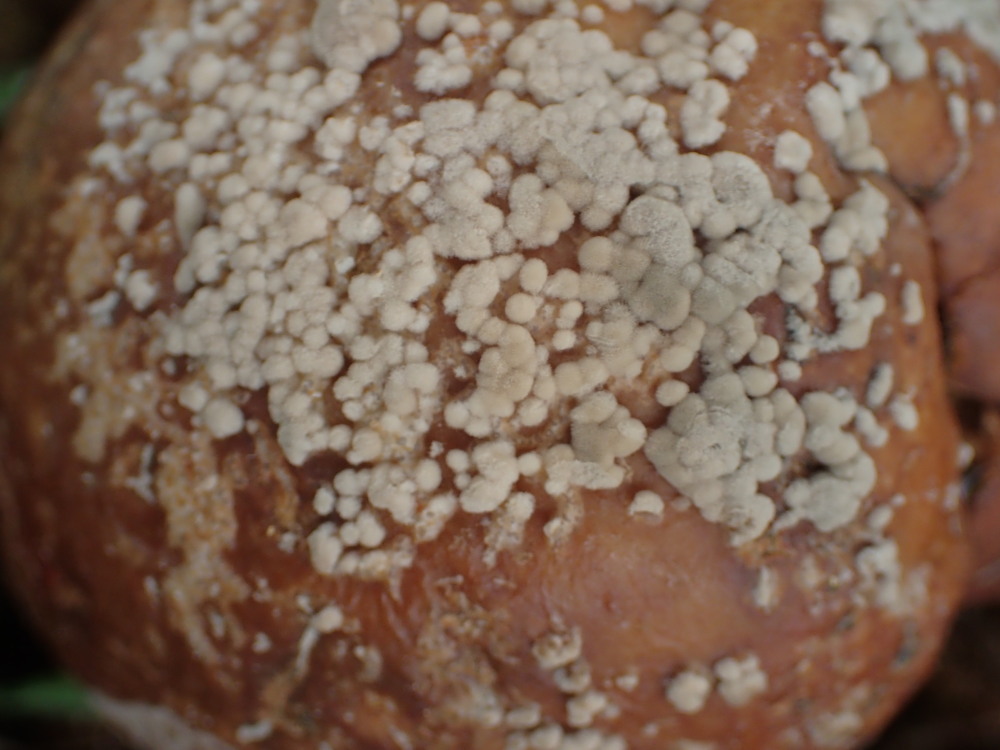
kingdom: Fungi
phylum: Ascomycota
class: Leotiomycetes
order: Helotiales
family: Sclerotiniaceae
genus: Monilinia
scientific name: Monilinia fructigena
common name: æble-knoldskive
